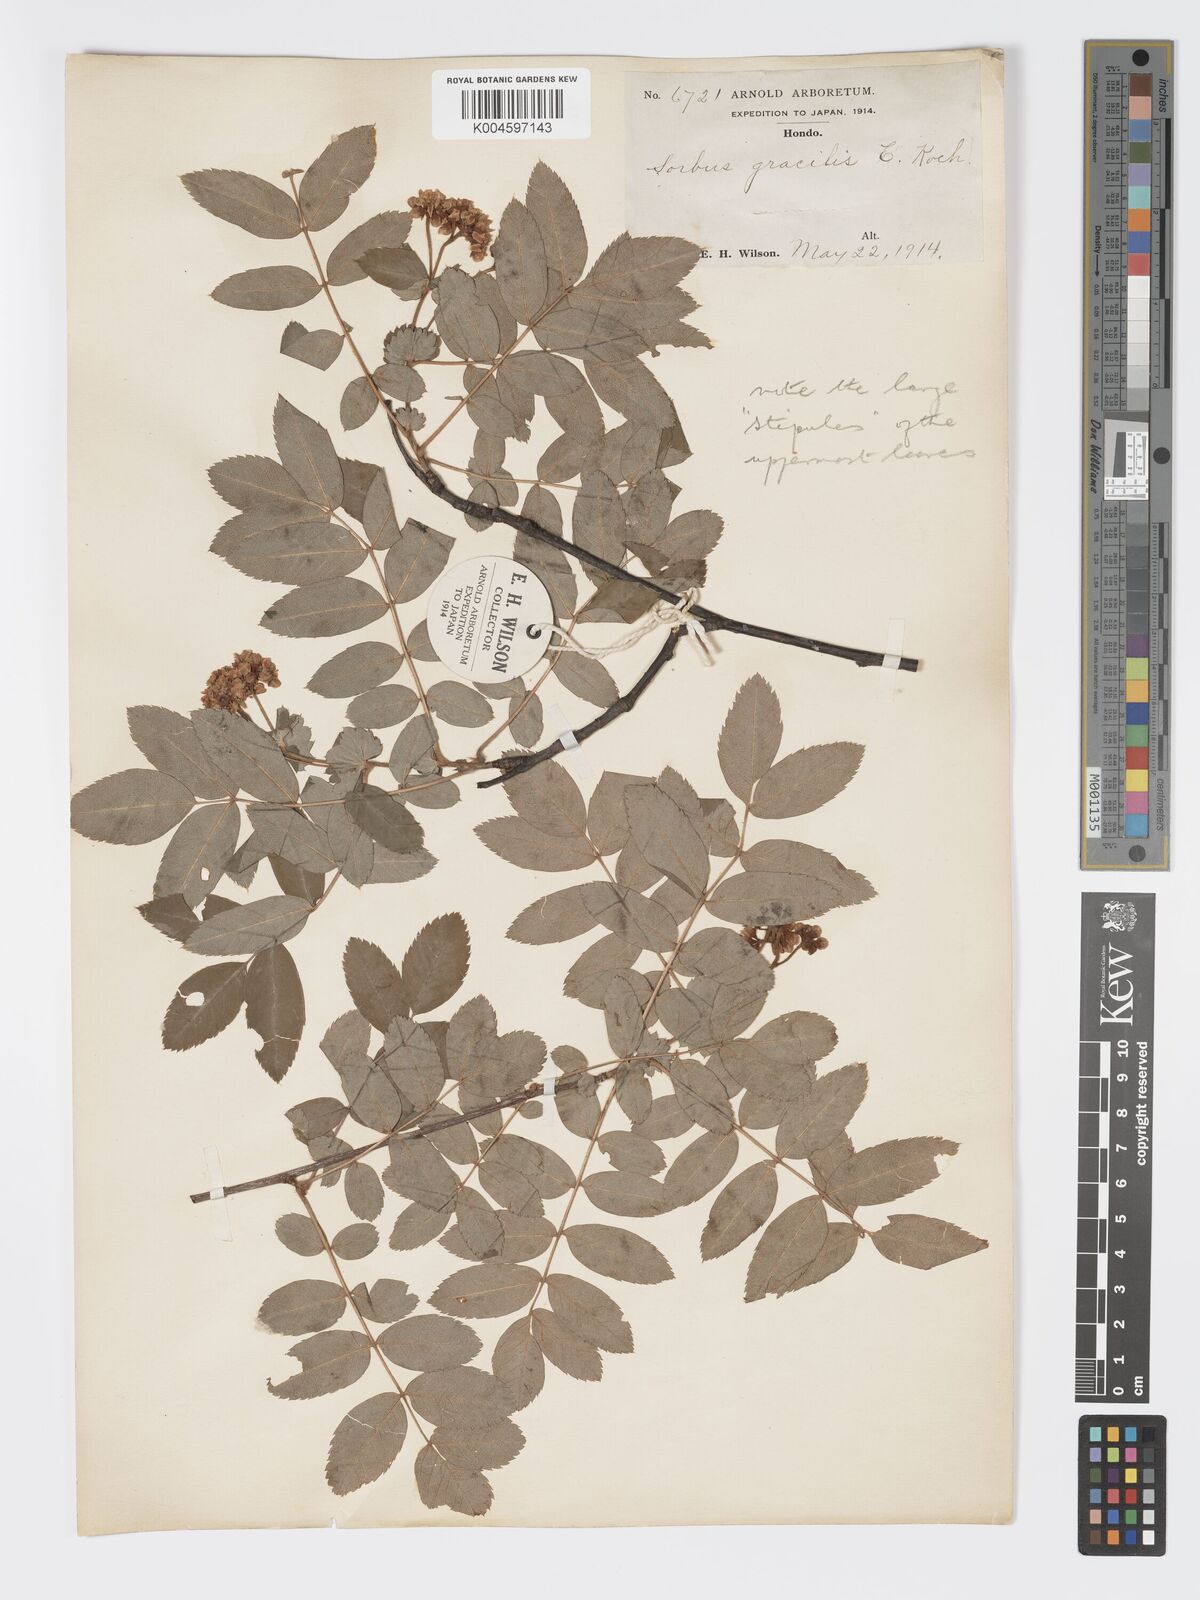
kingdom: Plantae
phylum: Tracheophyta
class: Magnoliopsida
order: Rosales
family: Rosaceae
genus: Sorbus
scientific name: Sorbus gracilis
